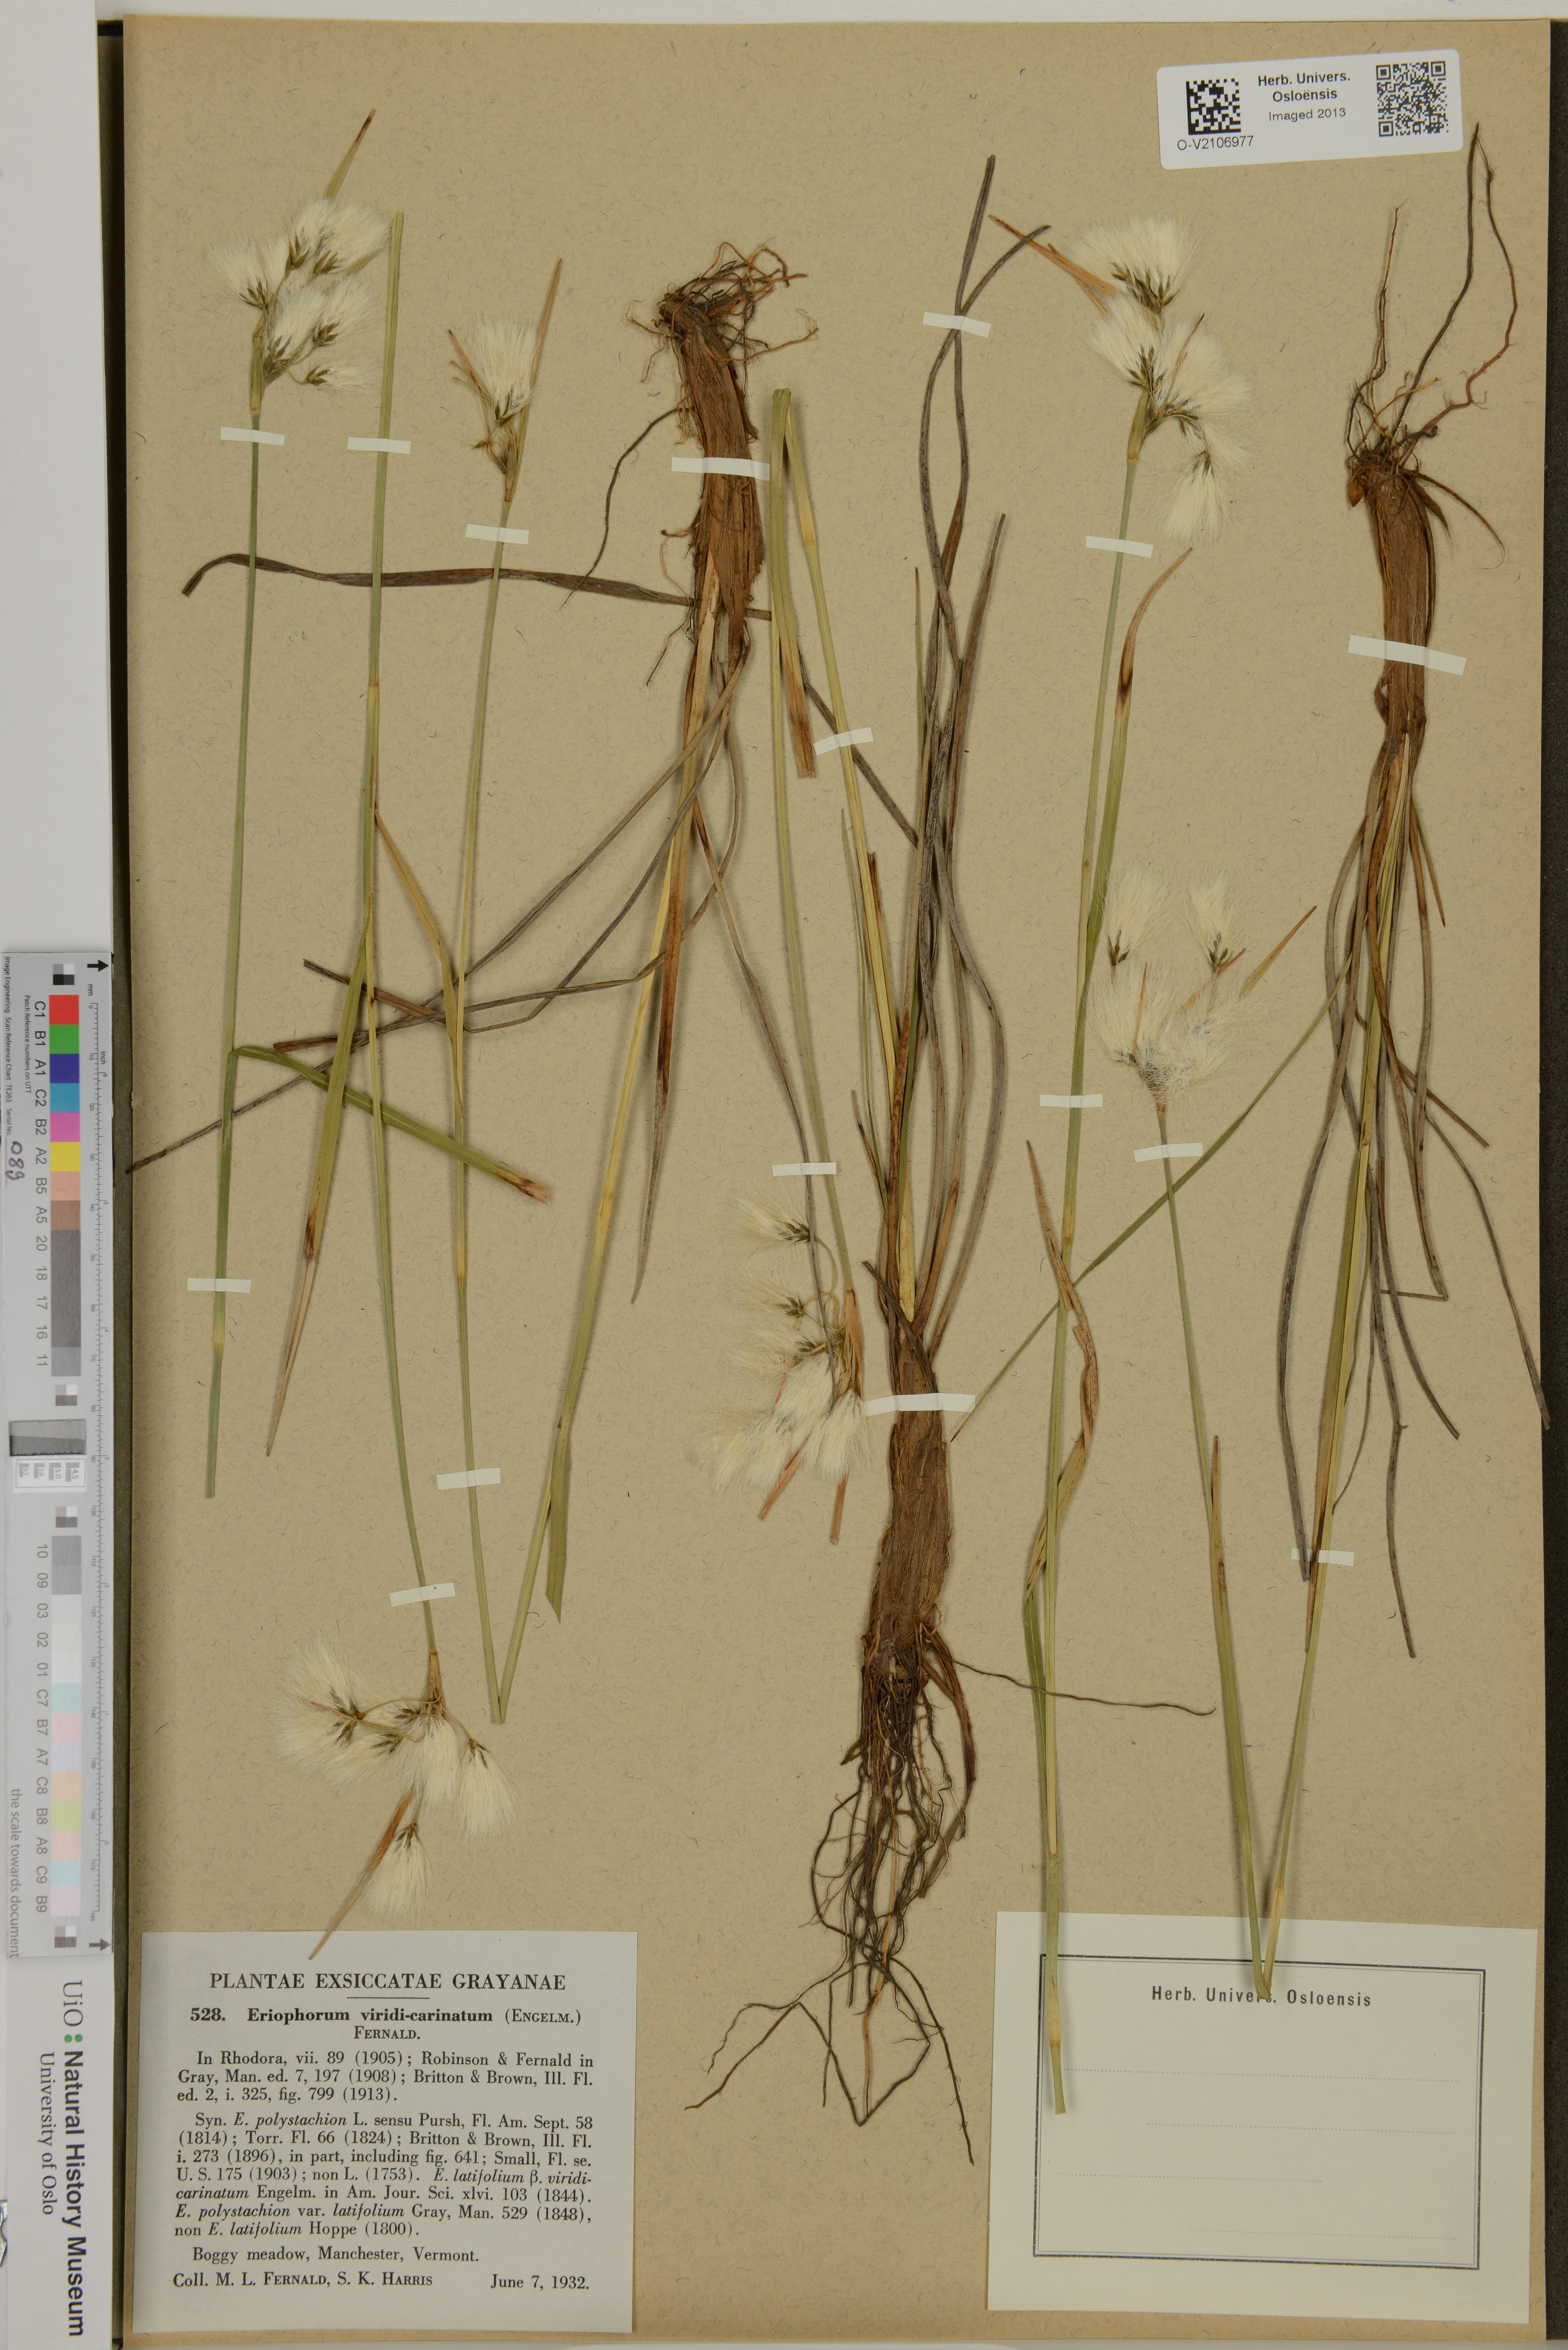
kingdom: Plantae
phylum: Tracheophyta
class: Liliopsida
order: Poales
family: Cyperaceae
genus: Eriophorum
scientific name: Eriophorum viridicarinatum
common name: Green-keeled cottongrass
